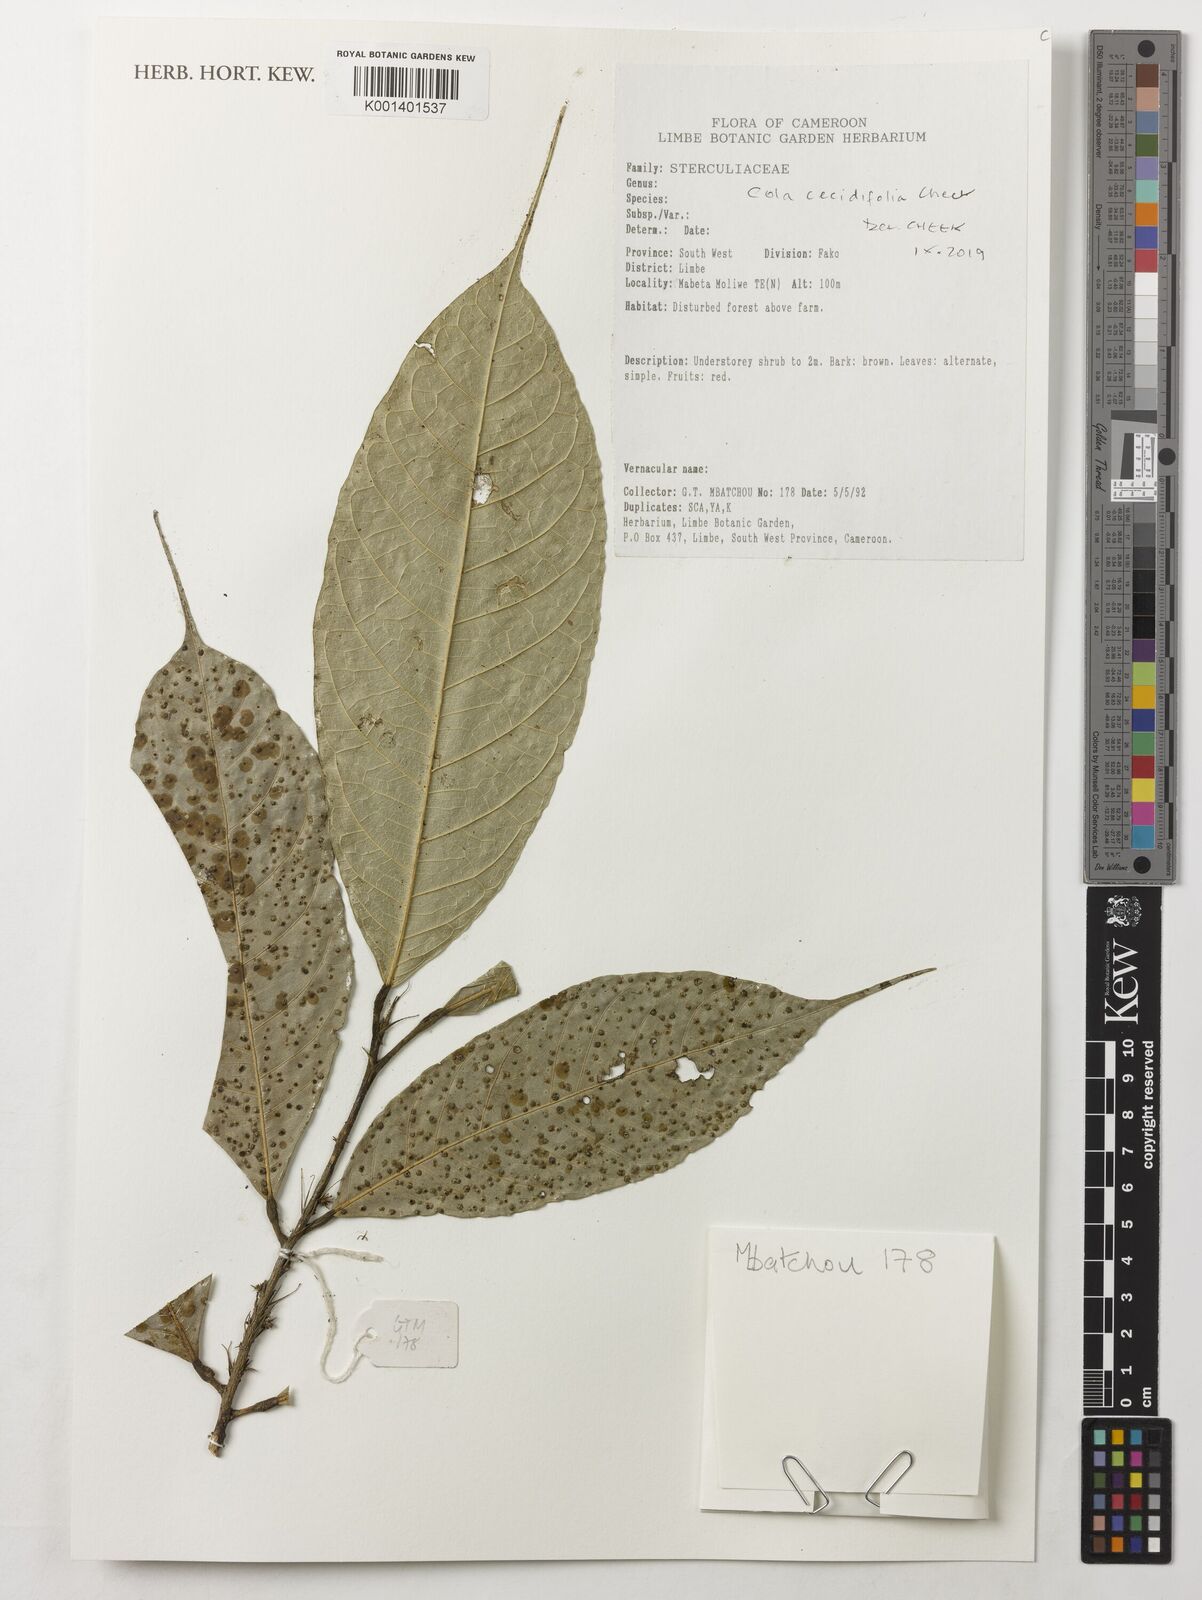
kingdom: Plantae
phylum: Tracheophyta
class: Magnoliopsida
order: Malvales
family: Malvaceae
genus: Cola
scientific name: Cola cecidiifolia
